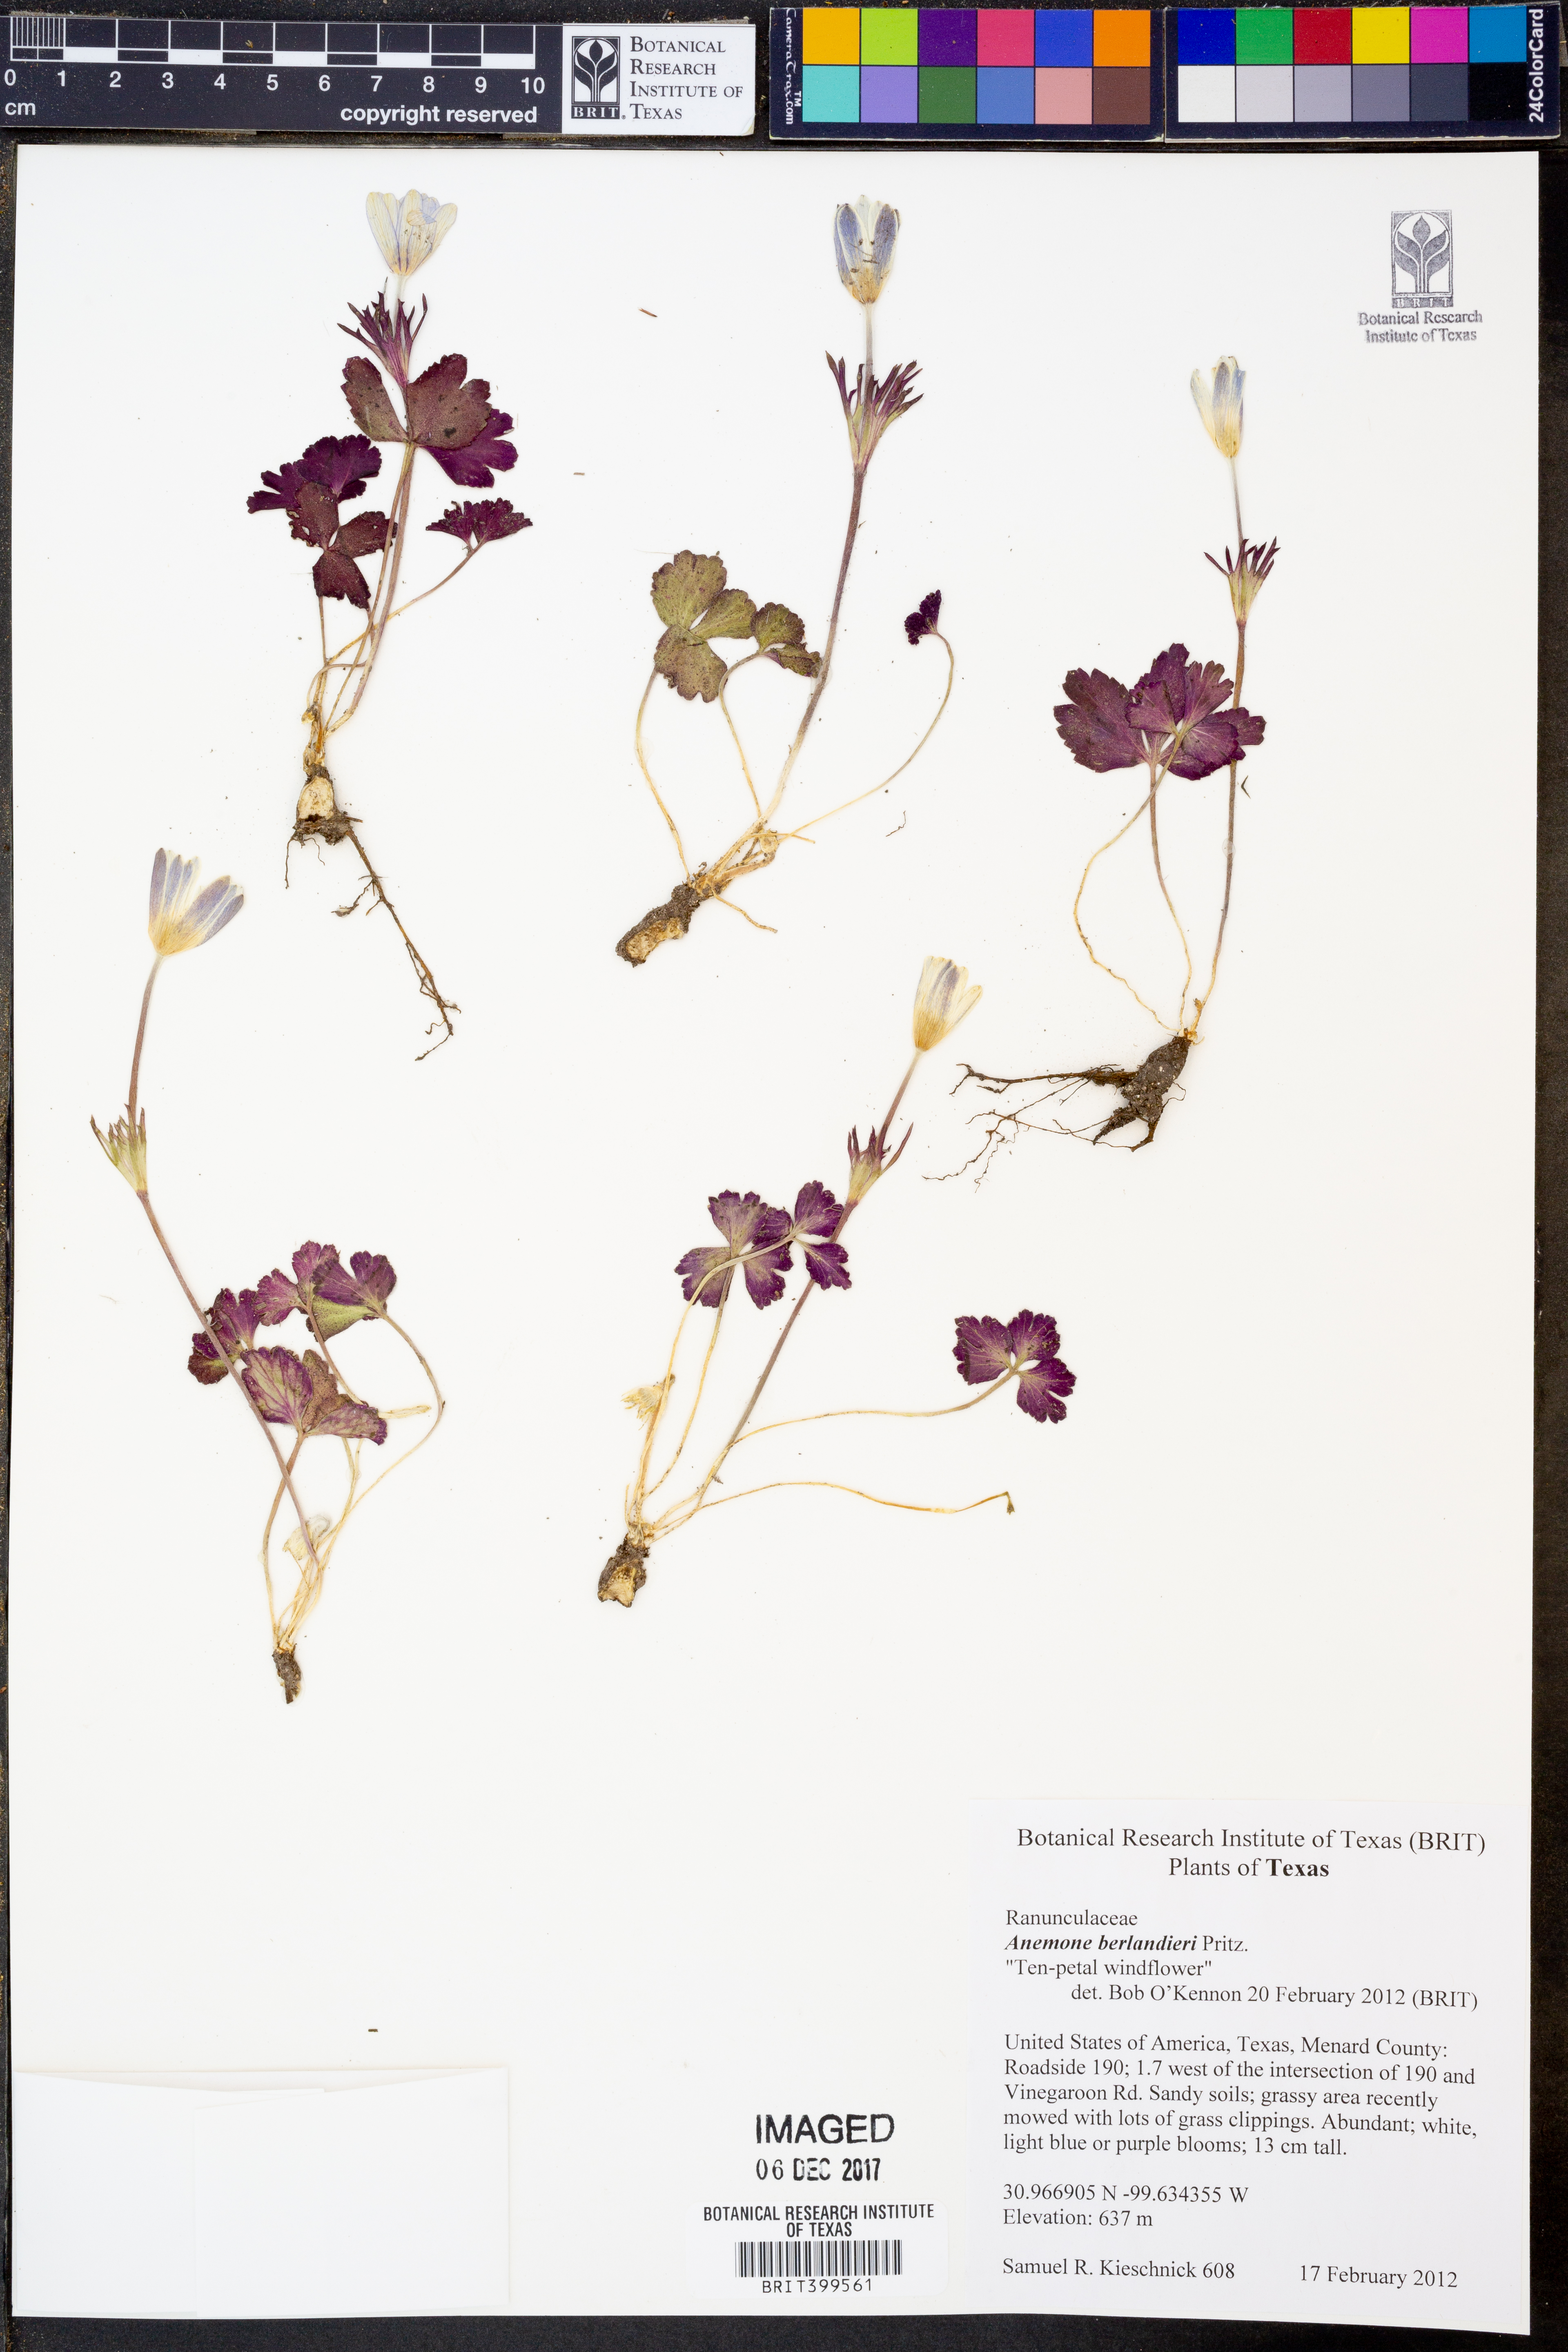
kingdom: Plantae
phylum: Tracheophyta
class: Magnoliopsida
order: Ranunculales
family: Ranunculaceae
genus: Anemone
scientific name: Anemone berlandieri
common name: Ten-petal anemone
